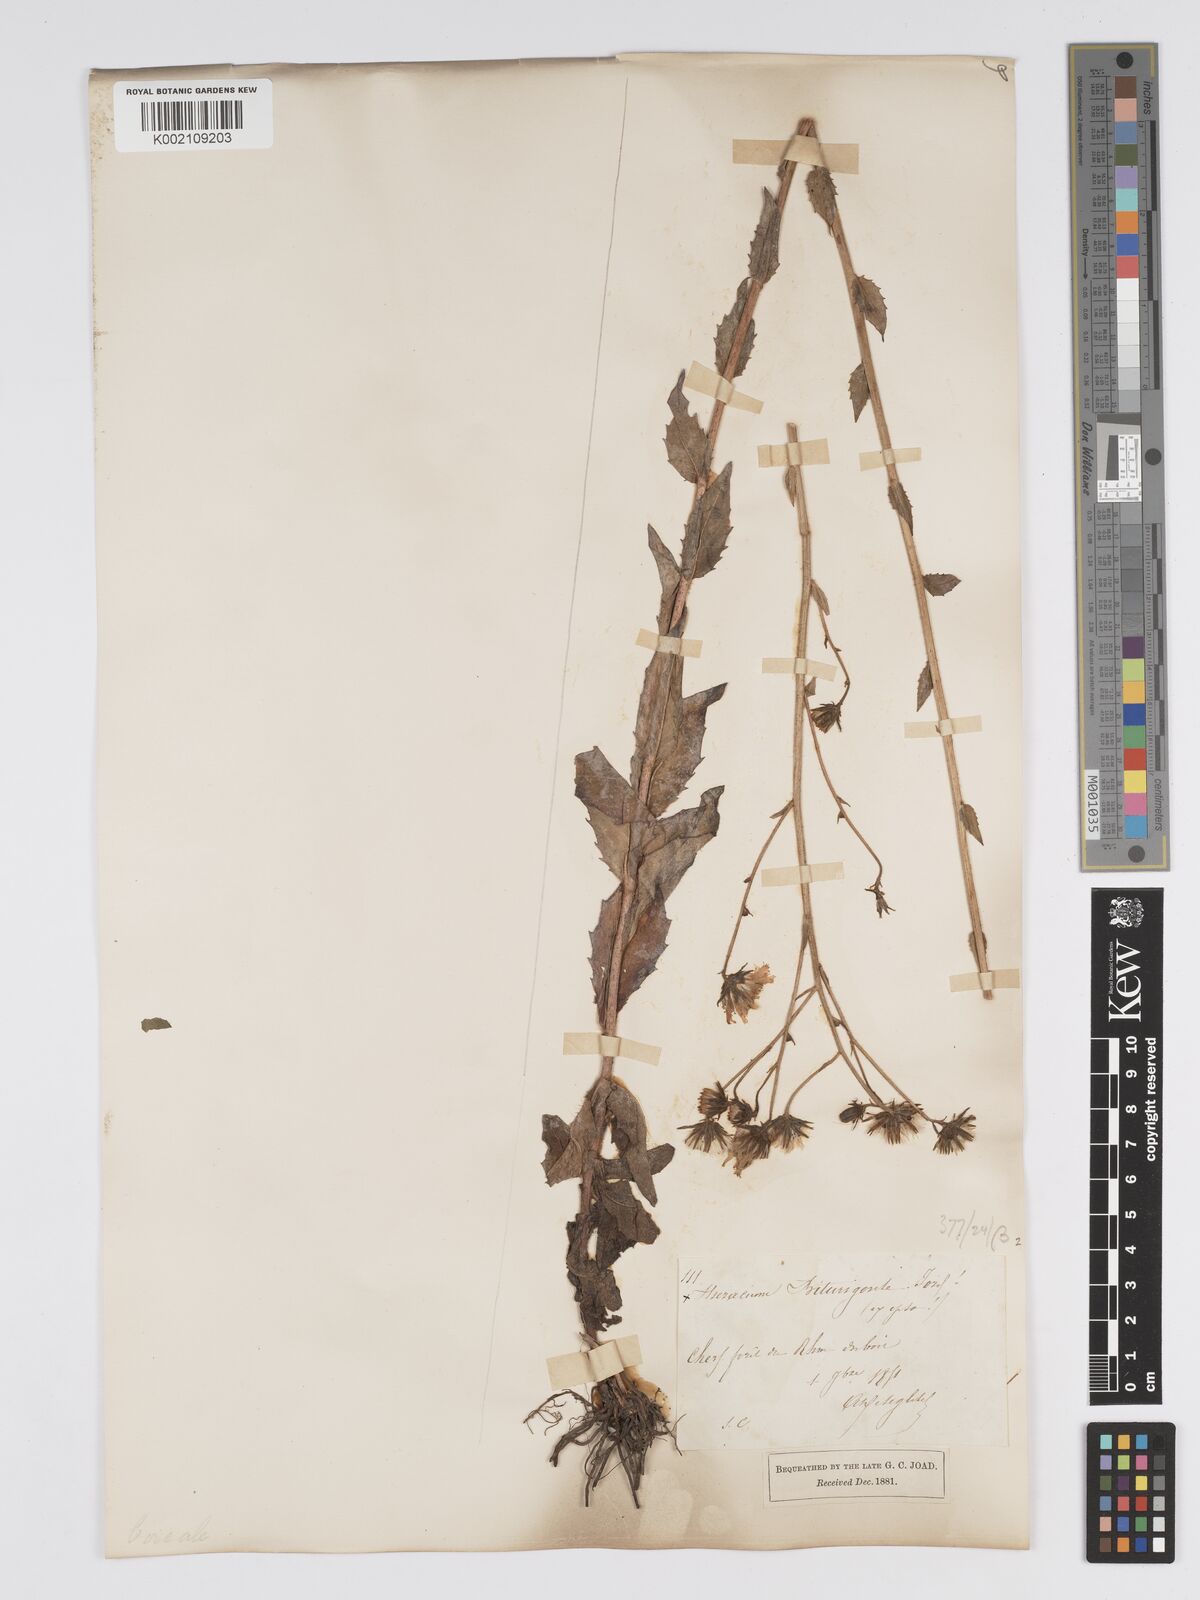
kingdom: Plantae
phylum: Tracheophyta
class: Magnoliopsida
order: Asterales
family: Asteraceae
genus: Hieracium
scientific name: Hieracium sabaudum
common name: New england hawkweed
